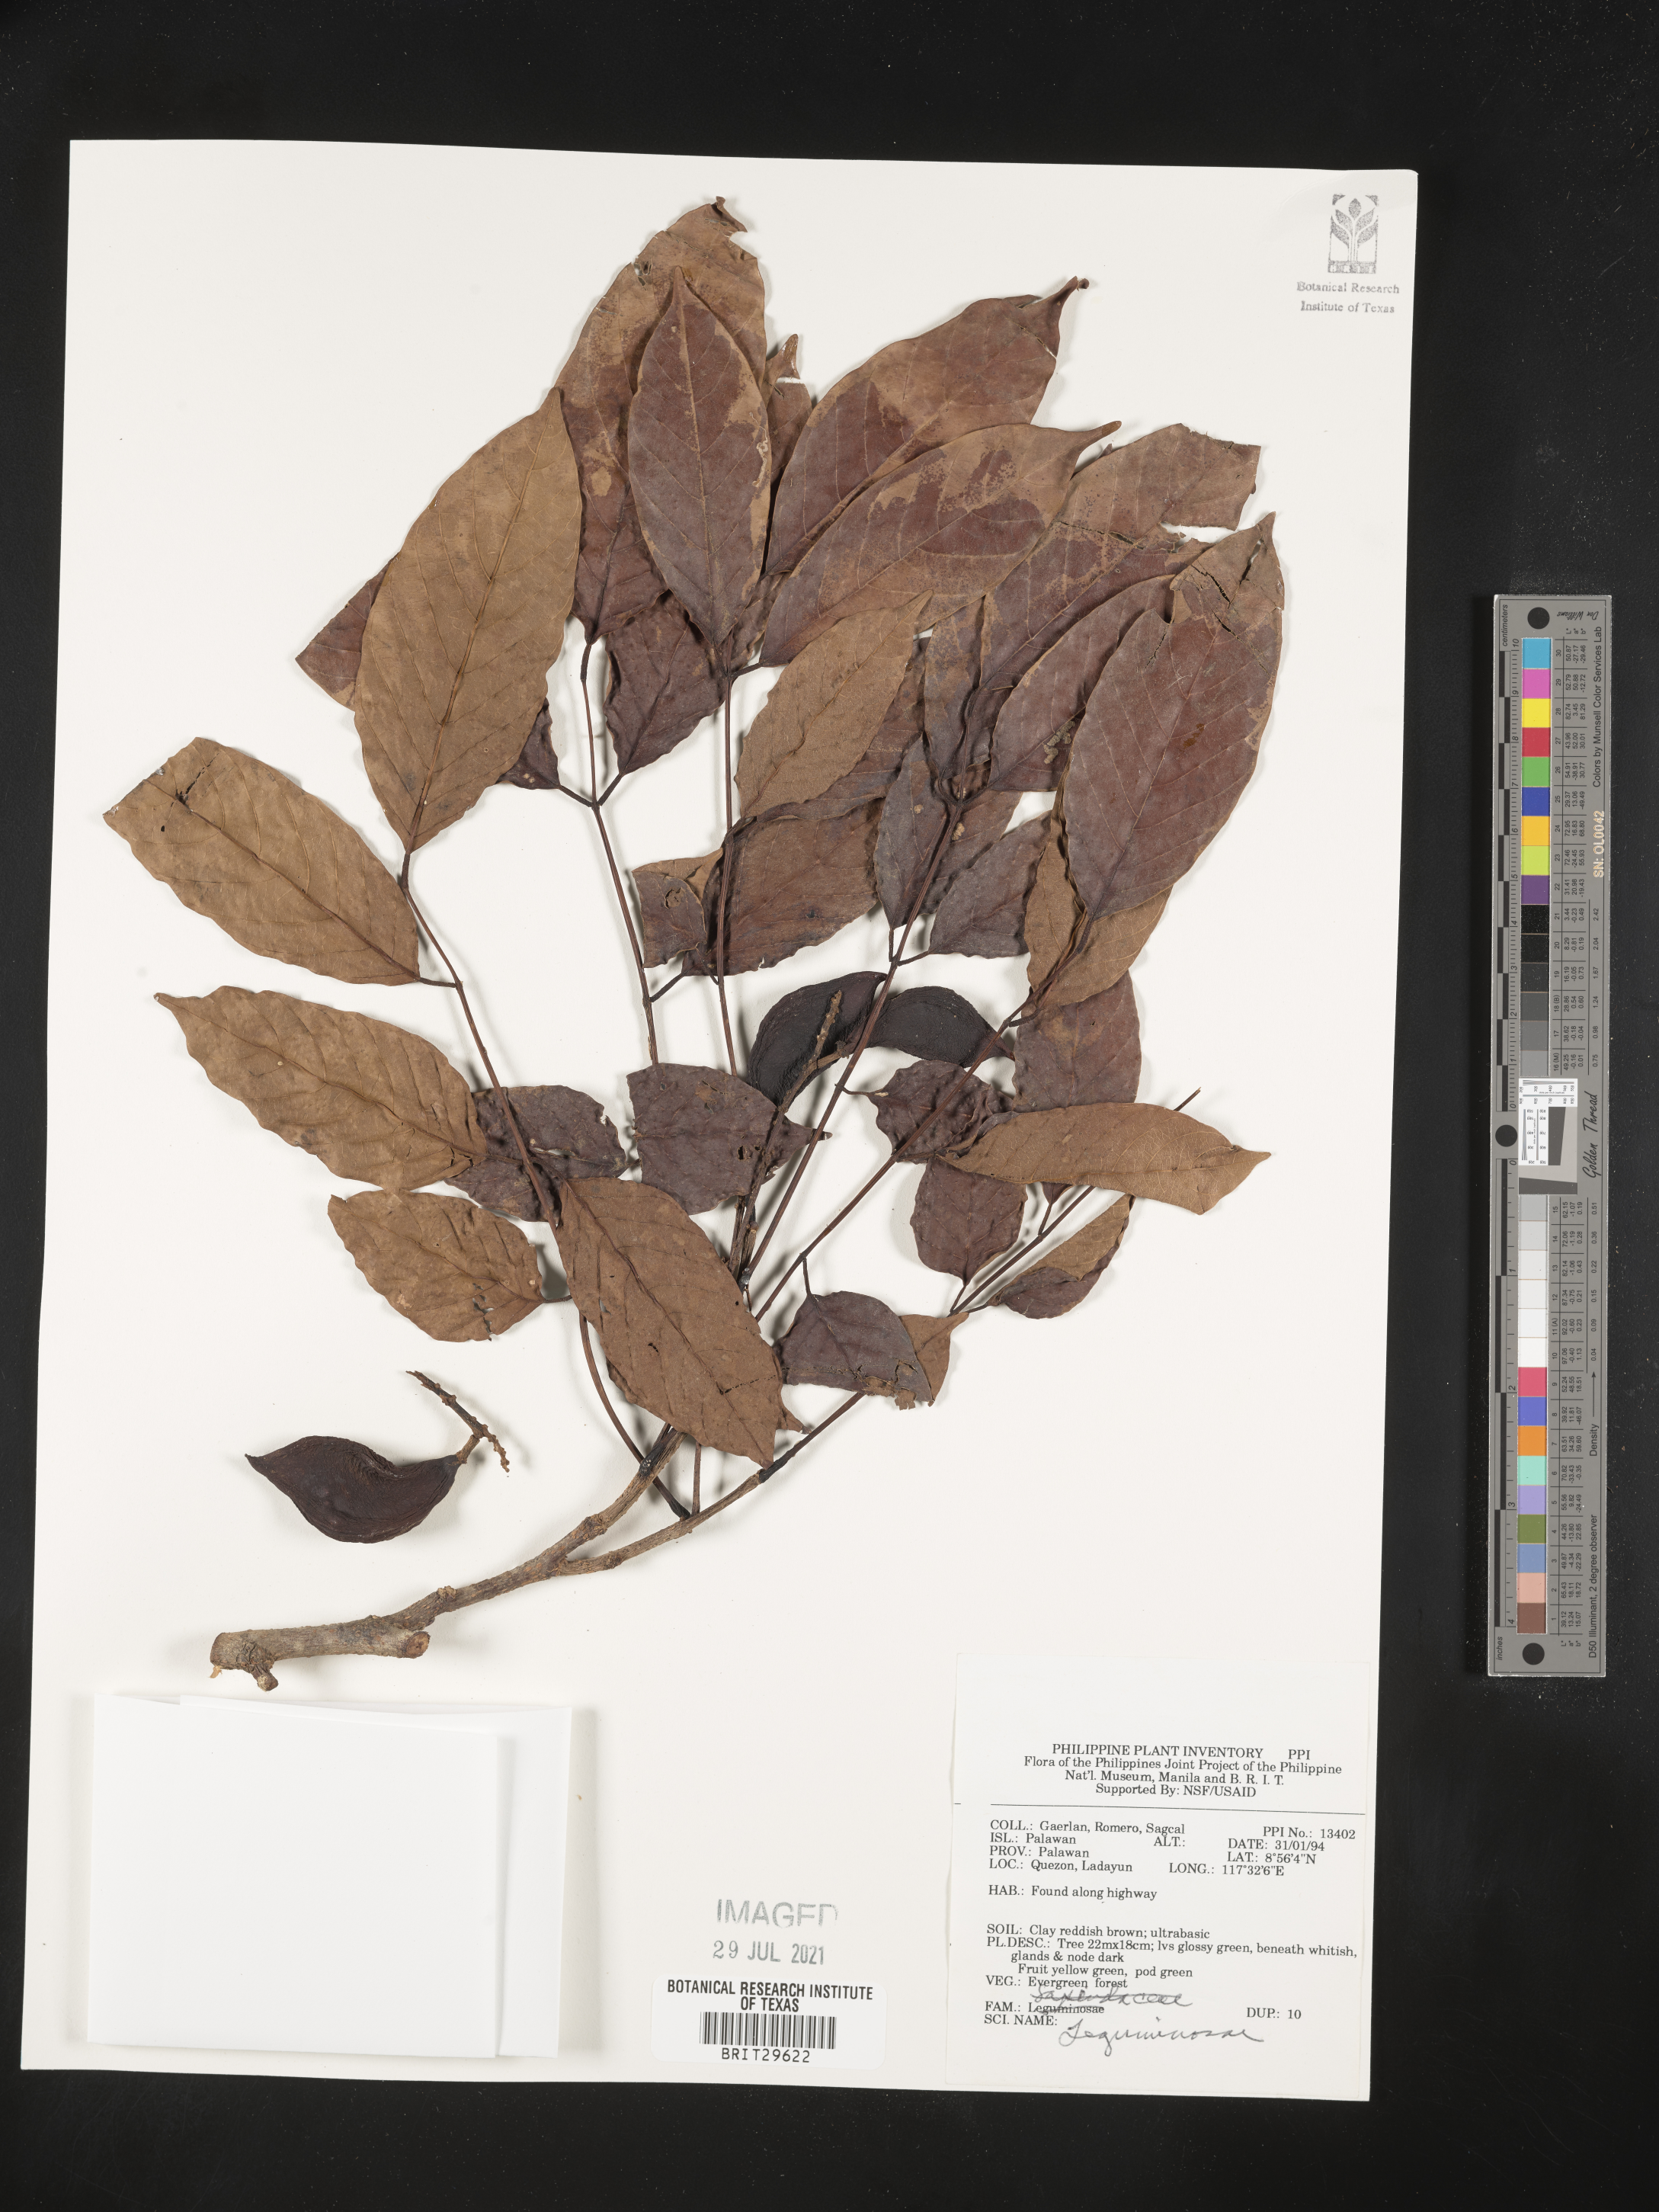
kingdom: Plantae
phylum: Tracheophyta
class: Magnoliopsida
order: Fabales
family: Fabaceae
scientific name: Fabaceae
